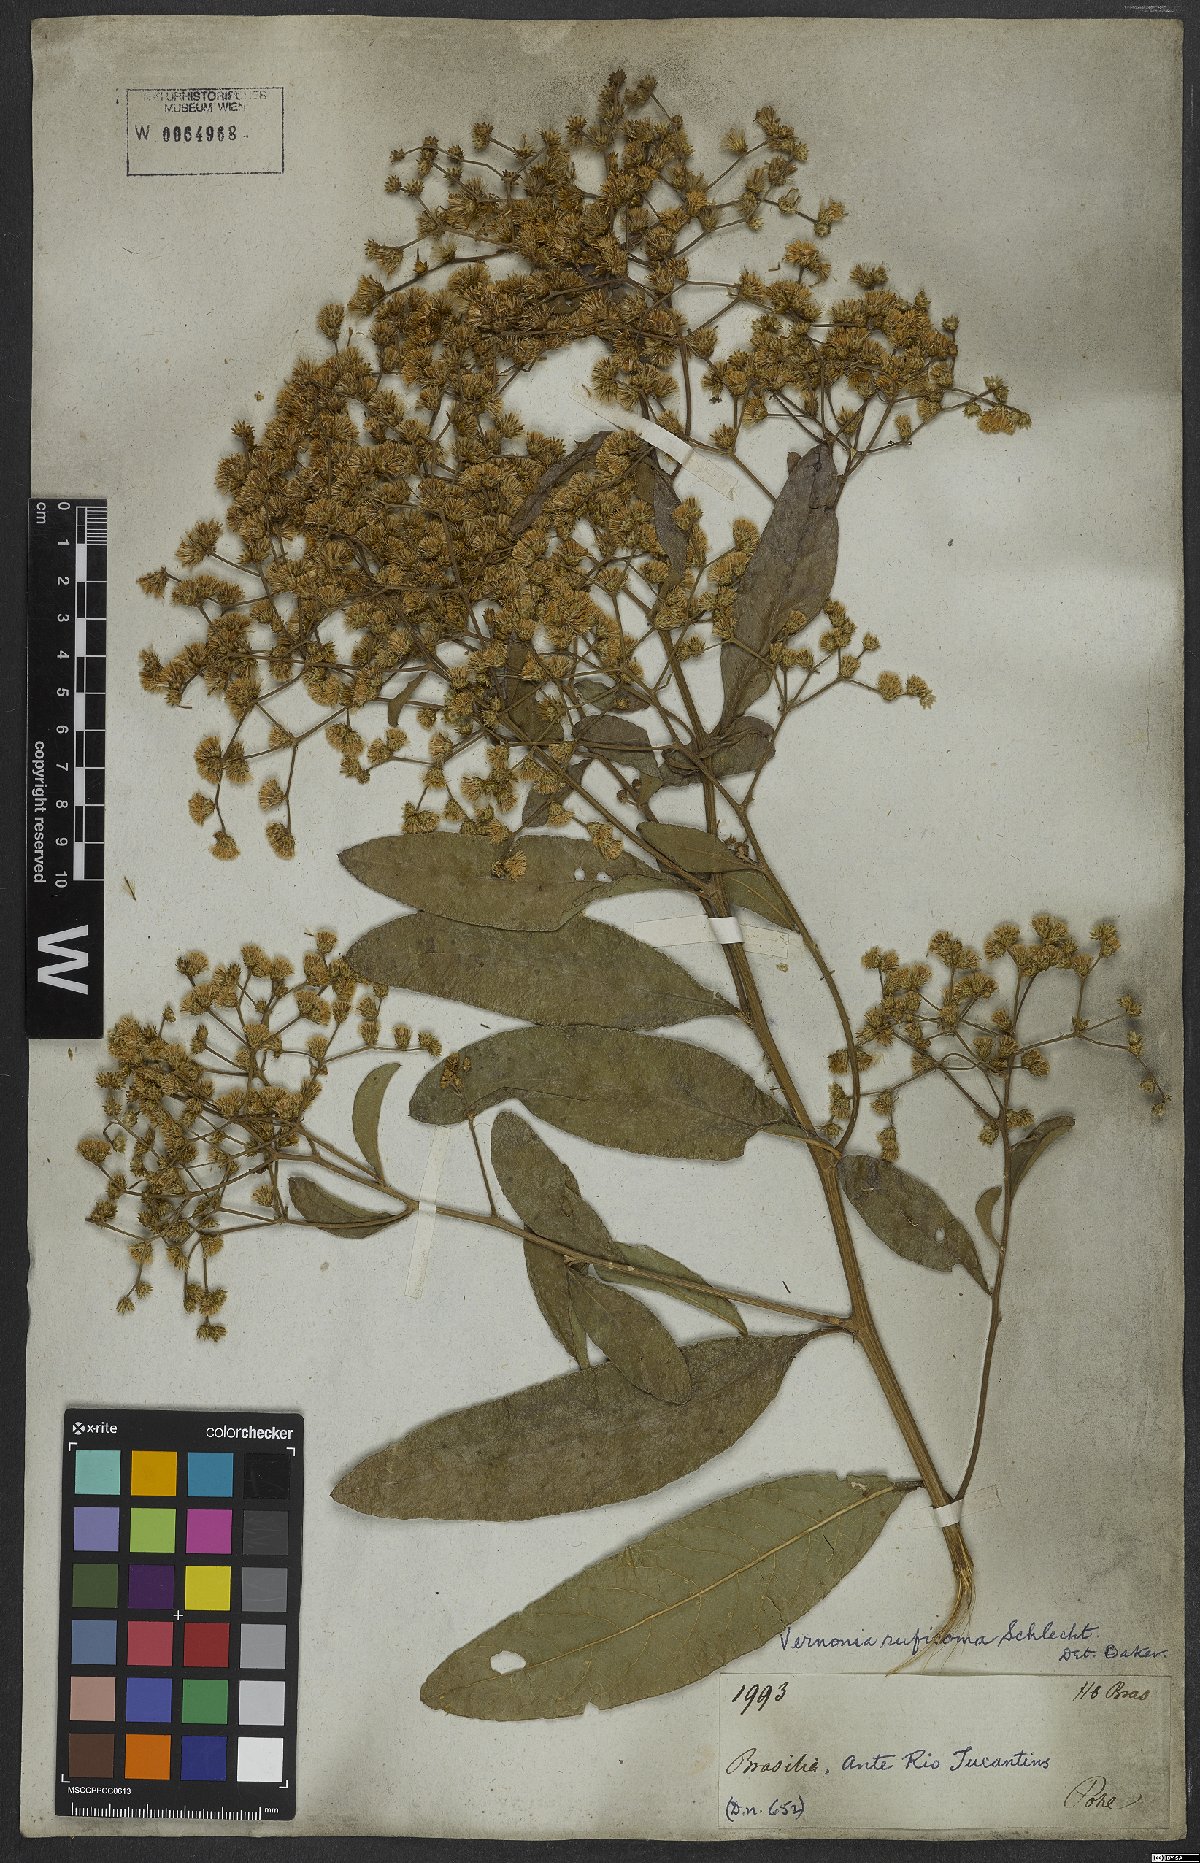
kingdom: Plantae
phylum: Tracheophyta
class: Magnoliopsida
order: Asterales
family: Asteraceae
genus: Vernonanthura
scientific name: Vernonanthura membranacea
